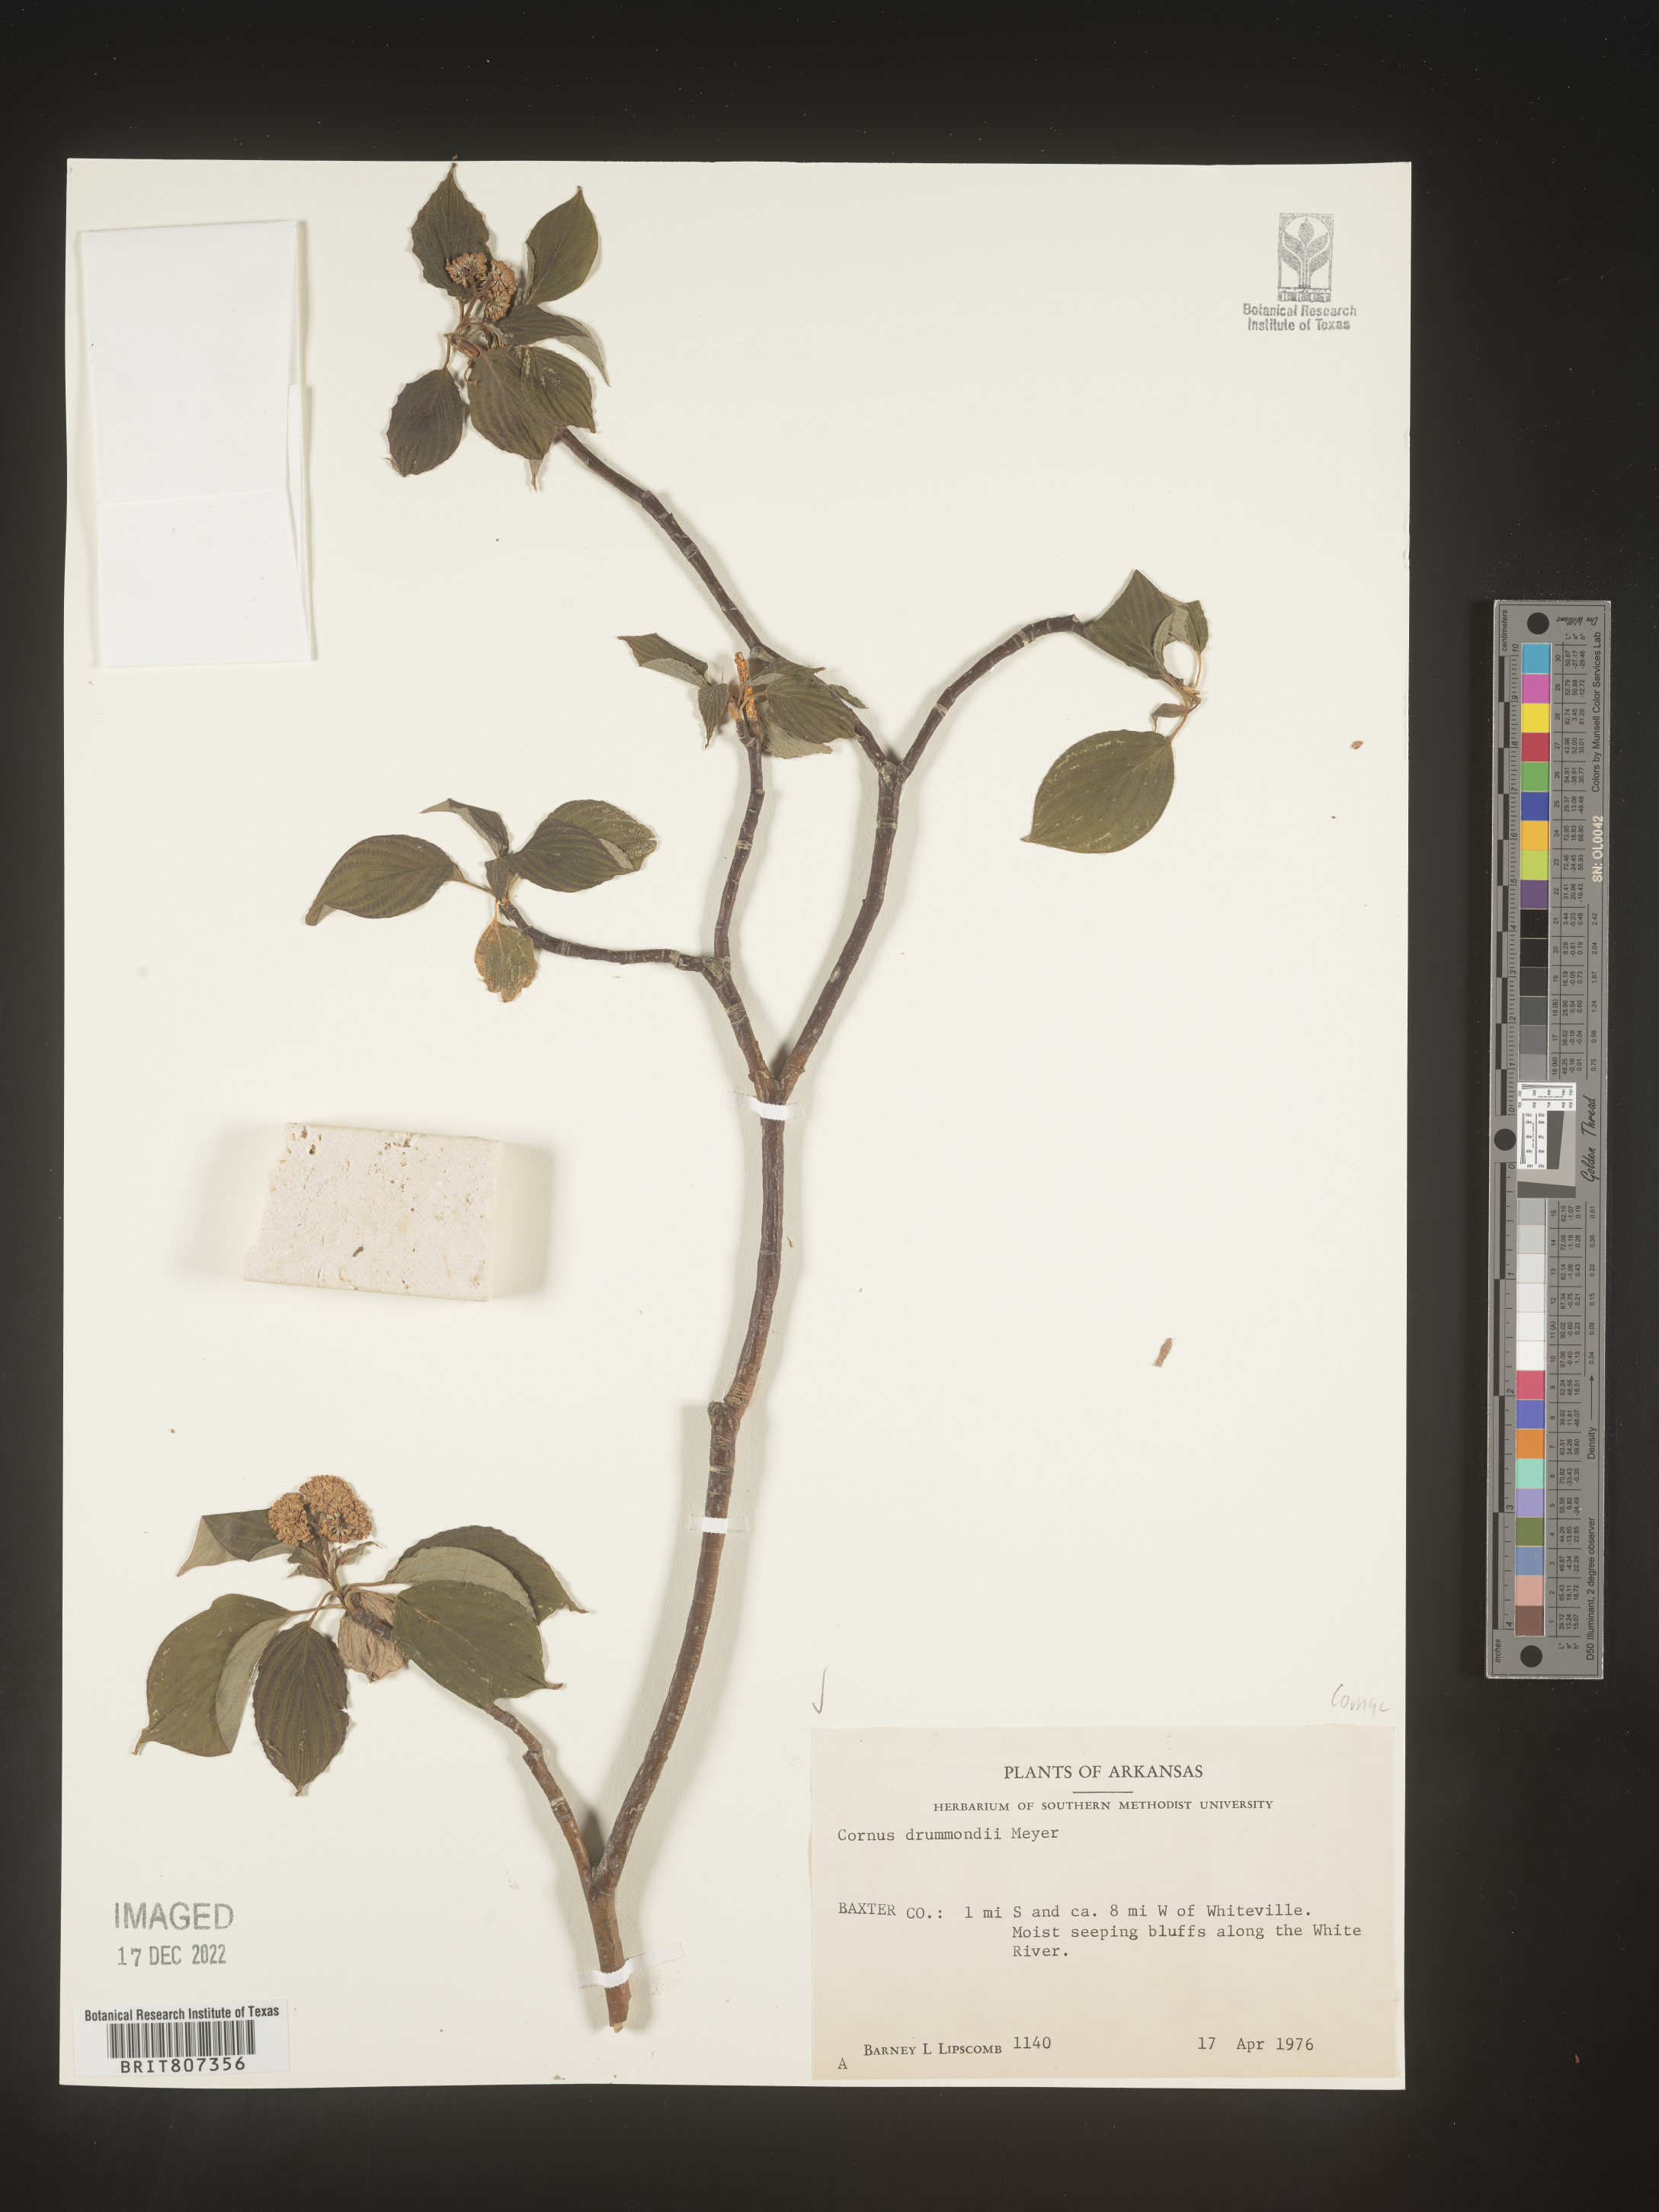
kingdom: Plantae
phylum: Tracheophyta
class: Magnoliopsida
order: Cornales
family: Cornaceae
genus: Cornus
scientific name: Cornus drummondii
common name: Rough-leaf dogwood
